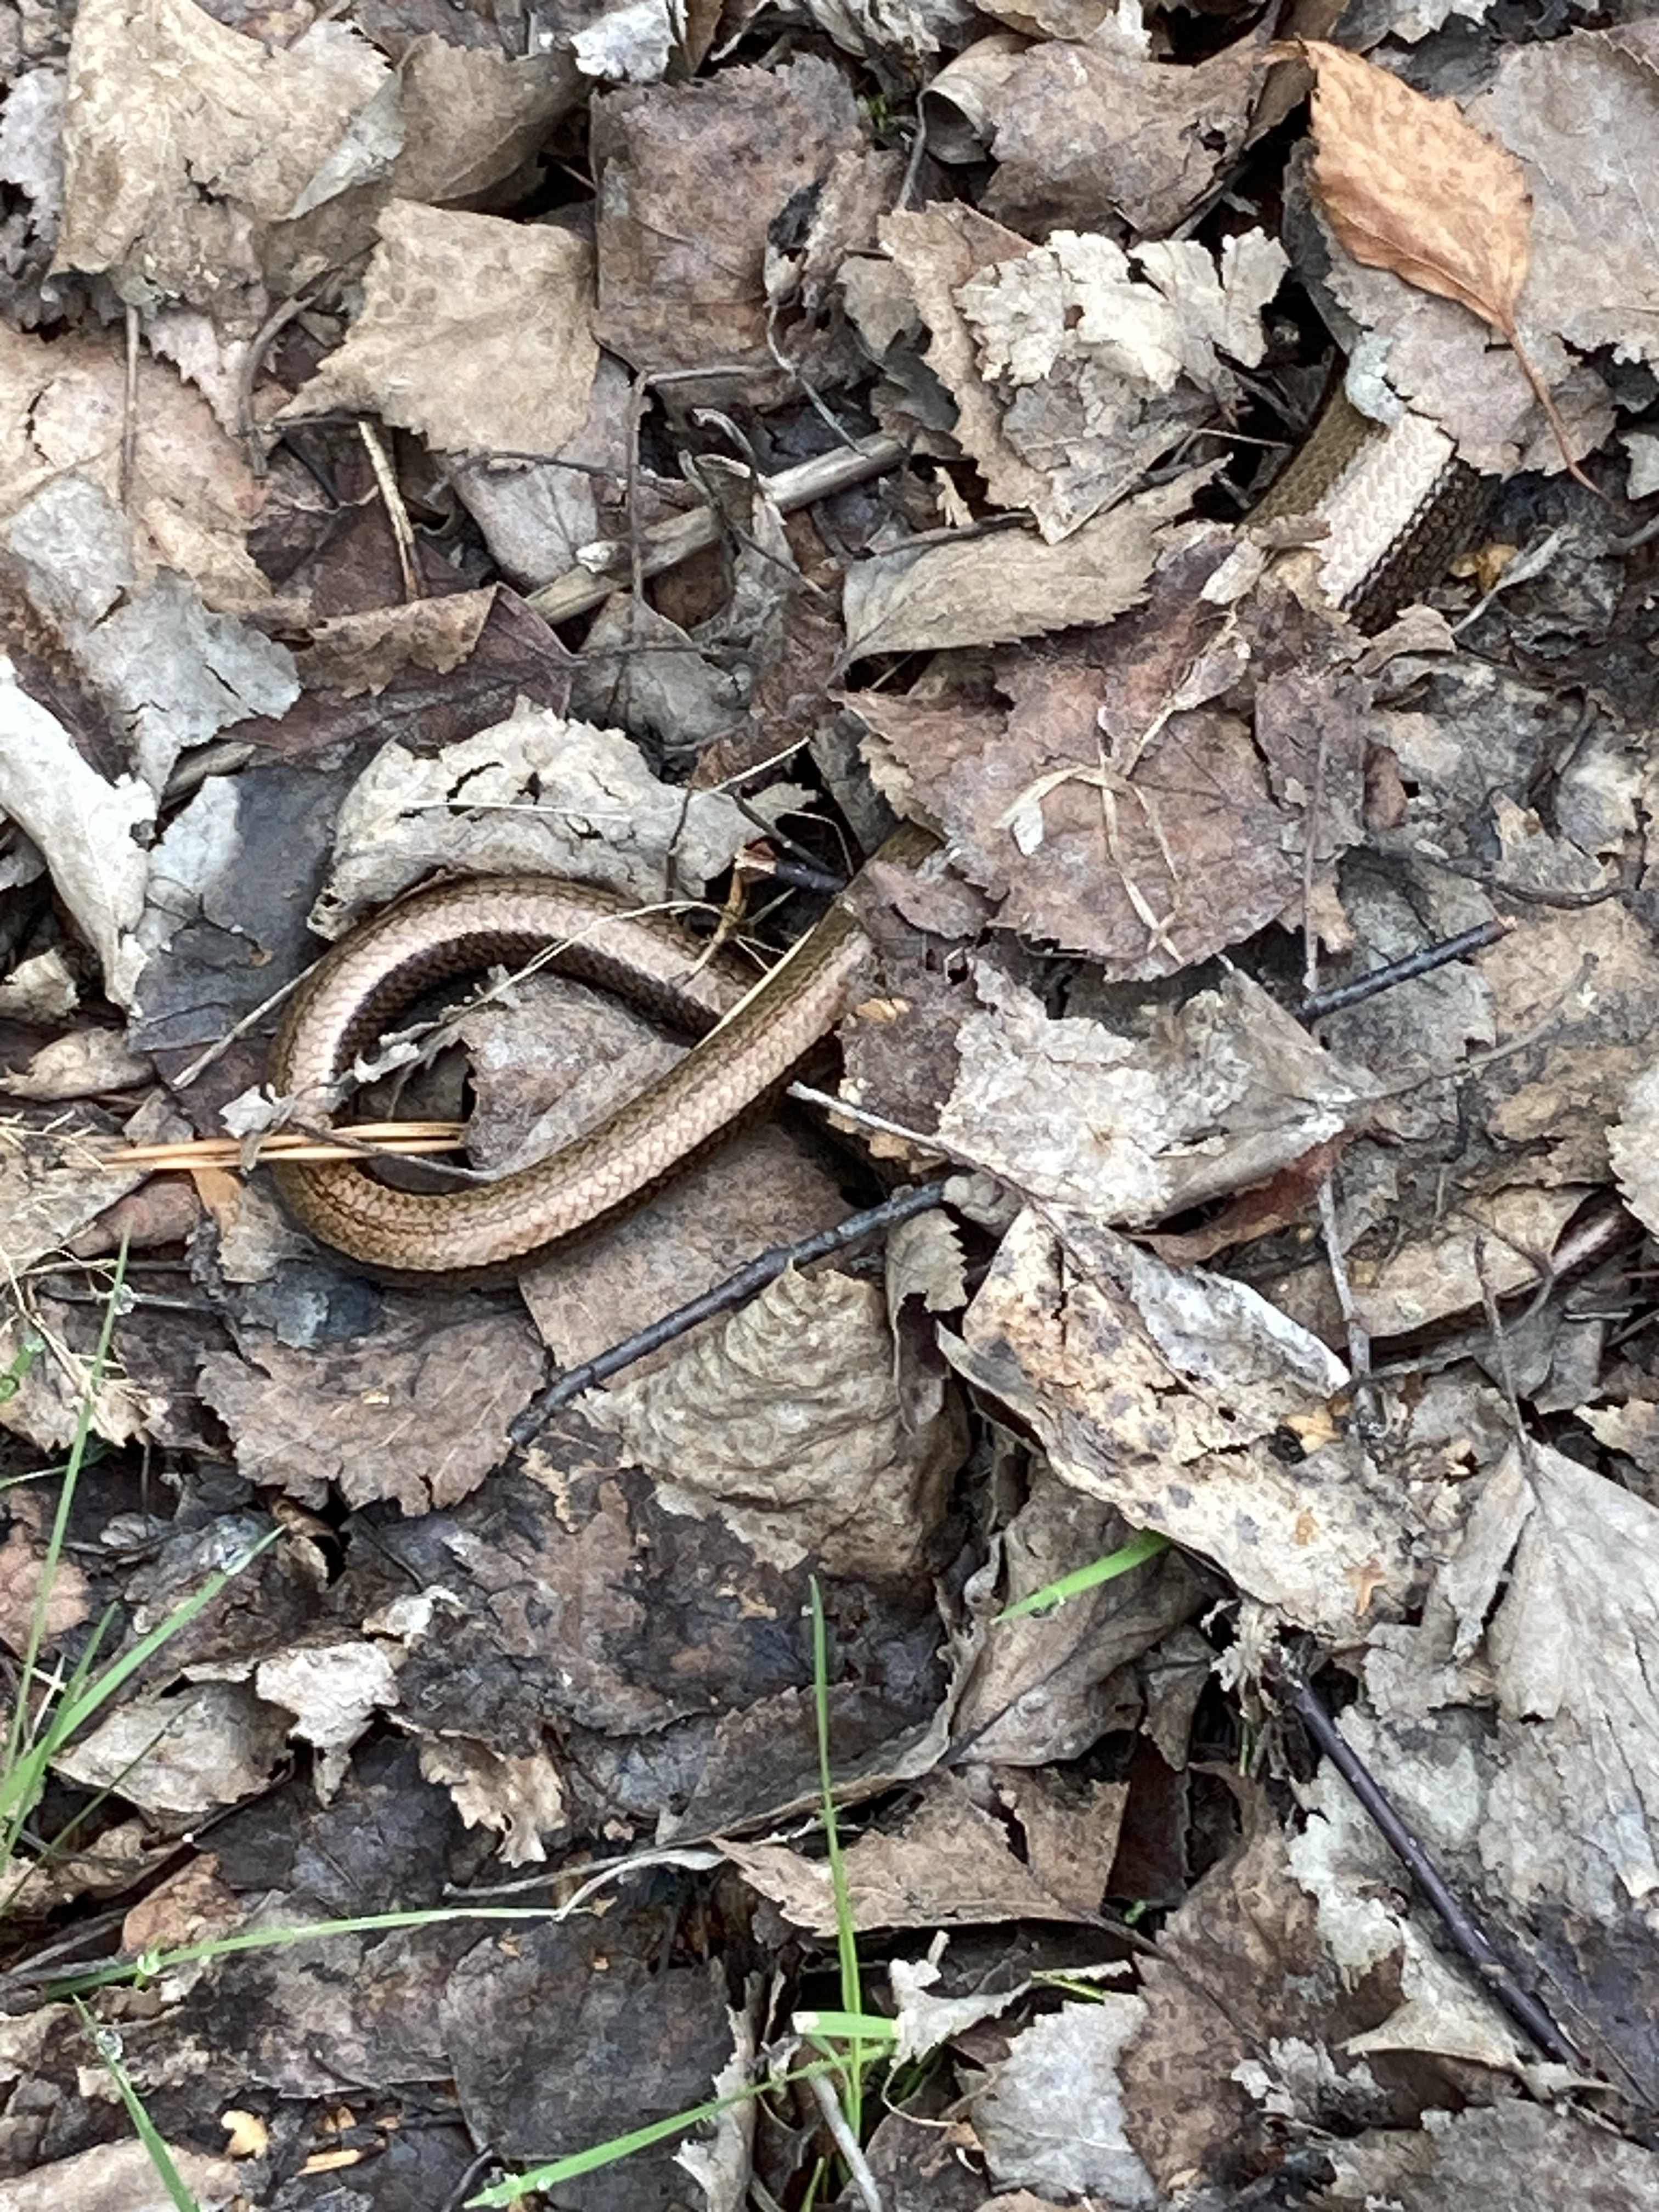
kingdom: Animalia
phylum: Chordata
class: Squamata
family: Anguidae
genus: Anguis
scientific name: Anguis colchica
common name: Slow worm
